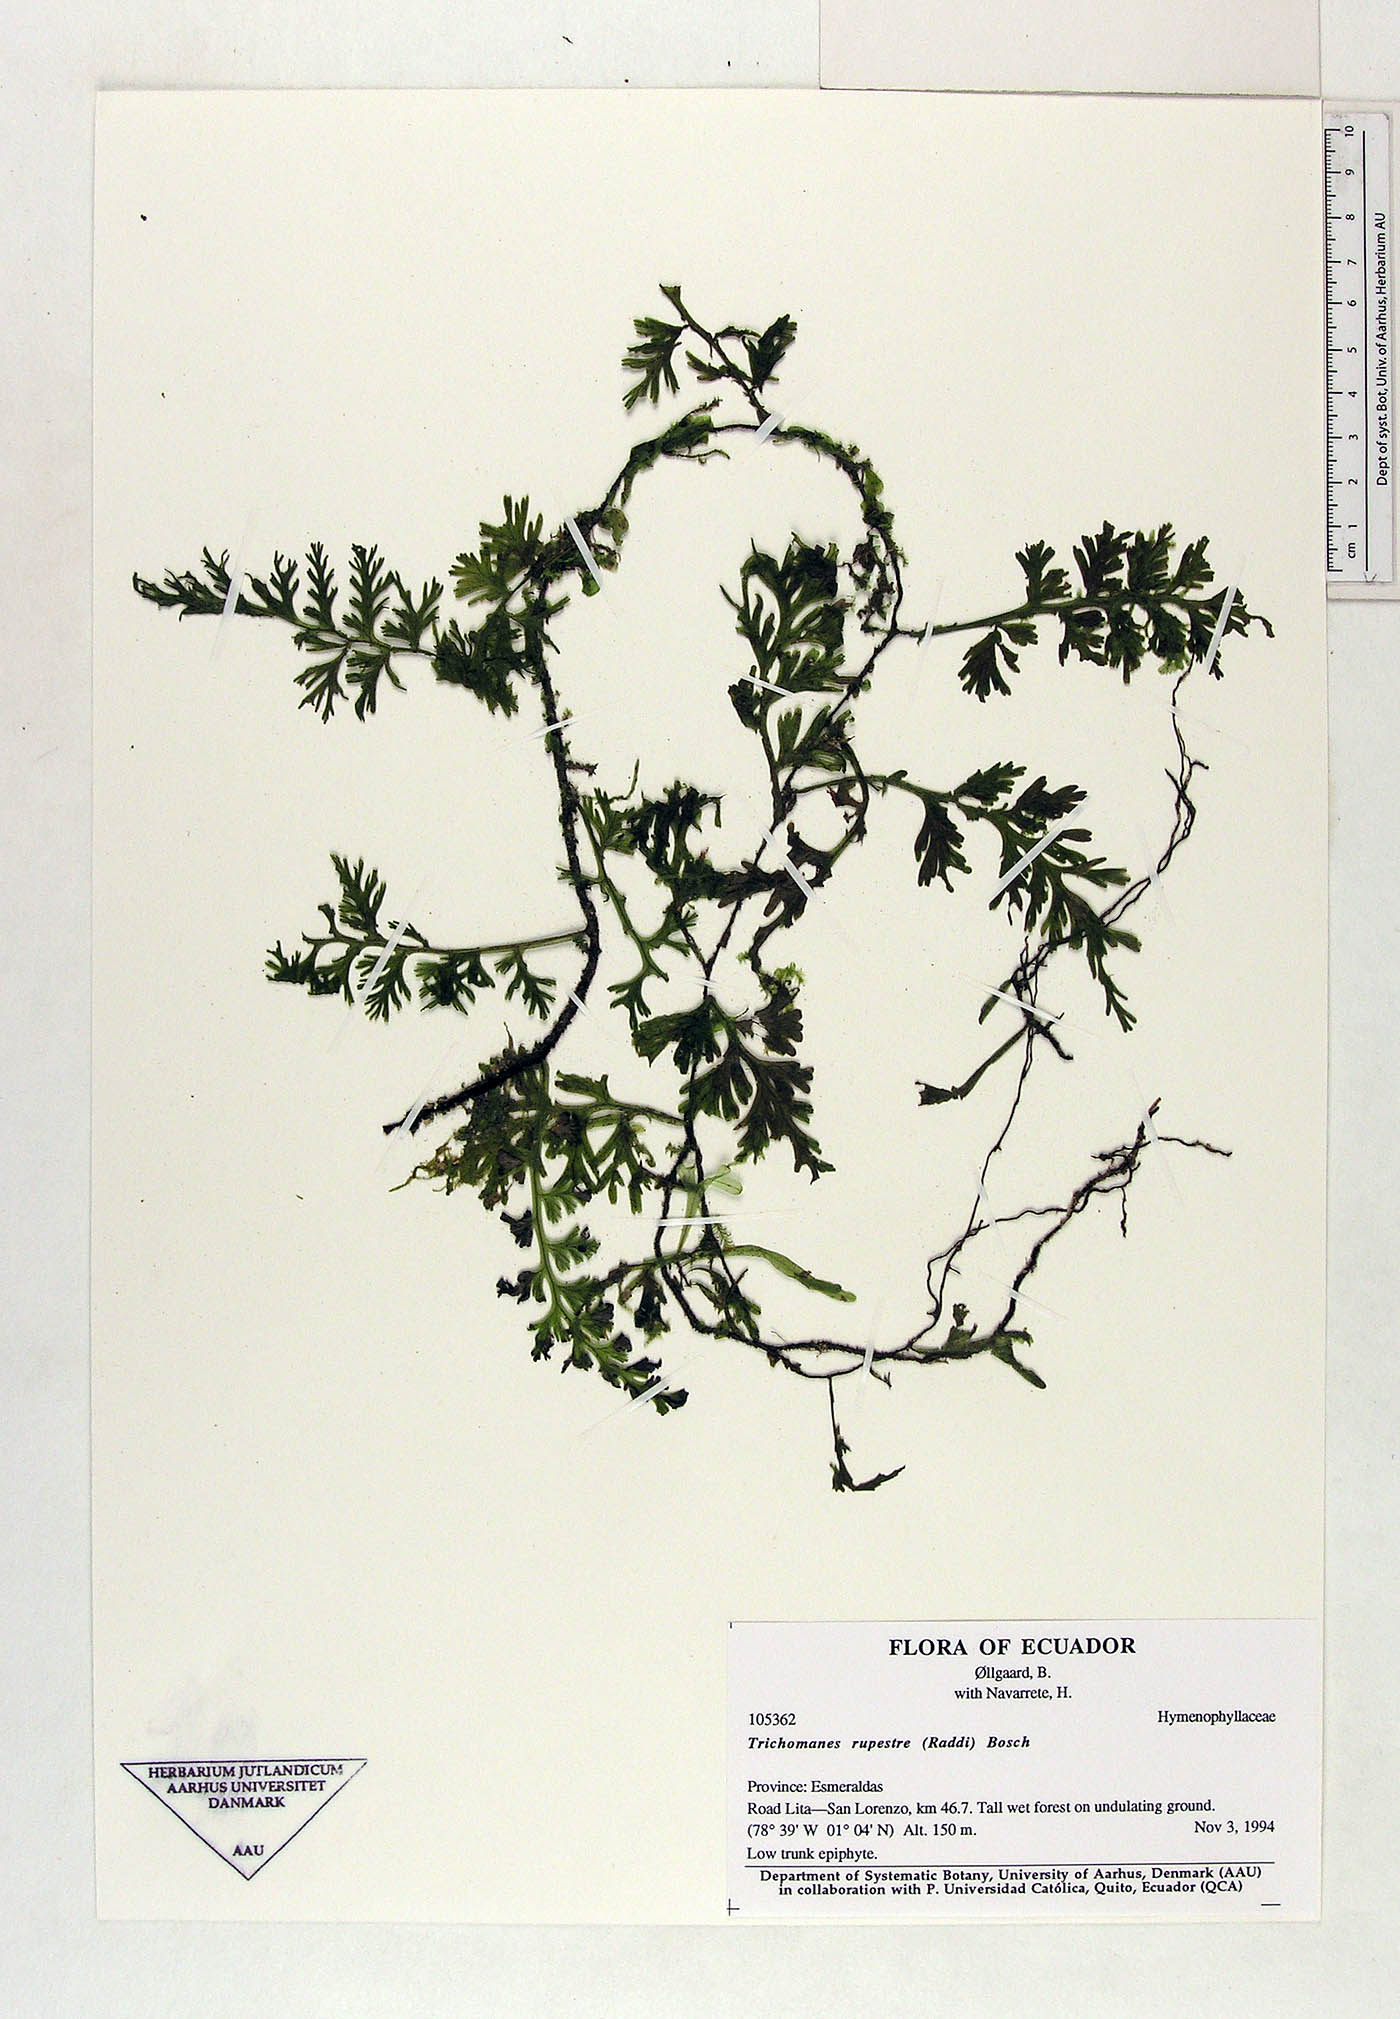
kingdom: Plantae
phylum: Tracheophyta
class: Polypodiopsida
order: Hymenophyllales
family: Hymenophyllaceae
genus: Vandenboschia
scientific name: Vandenboschia rupestris
